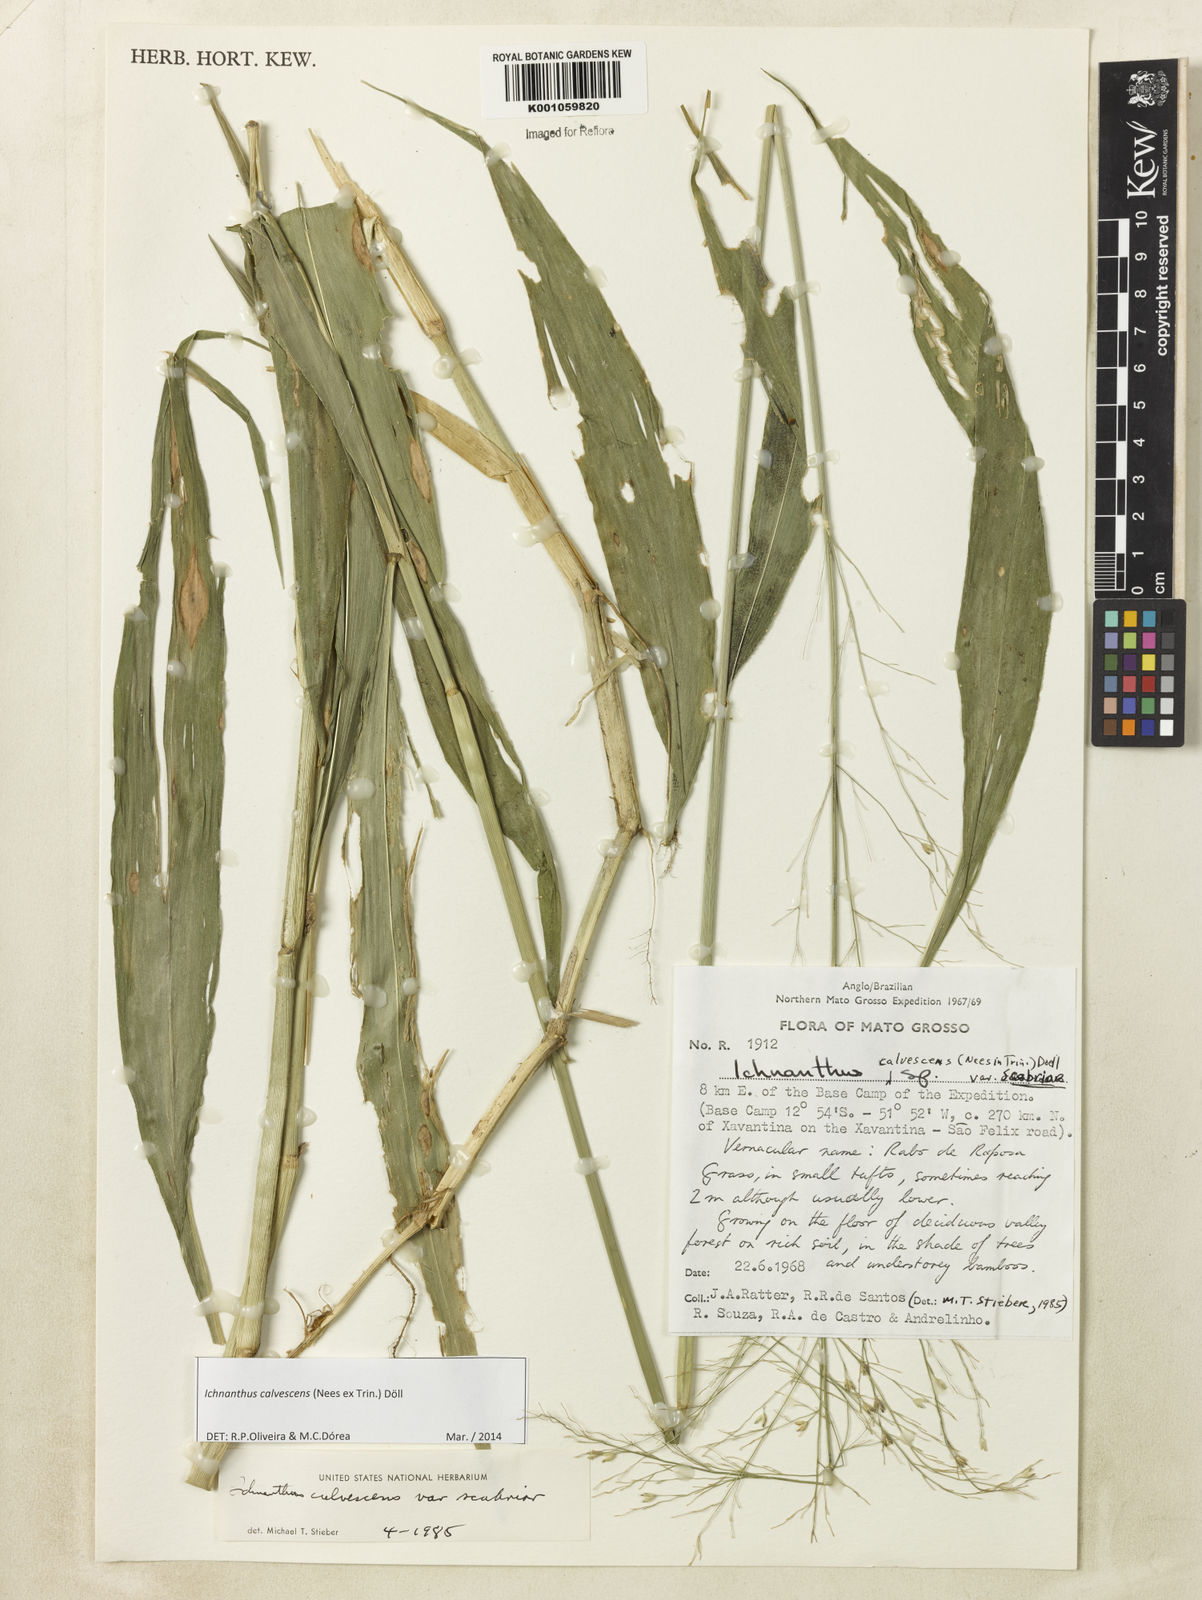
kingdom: Plantae
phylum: Tracheophyta
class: Liliopsida
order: Poales
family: Poaceae
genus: Ichnanthus
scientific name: Ichnanthus
